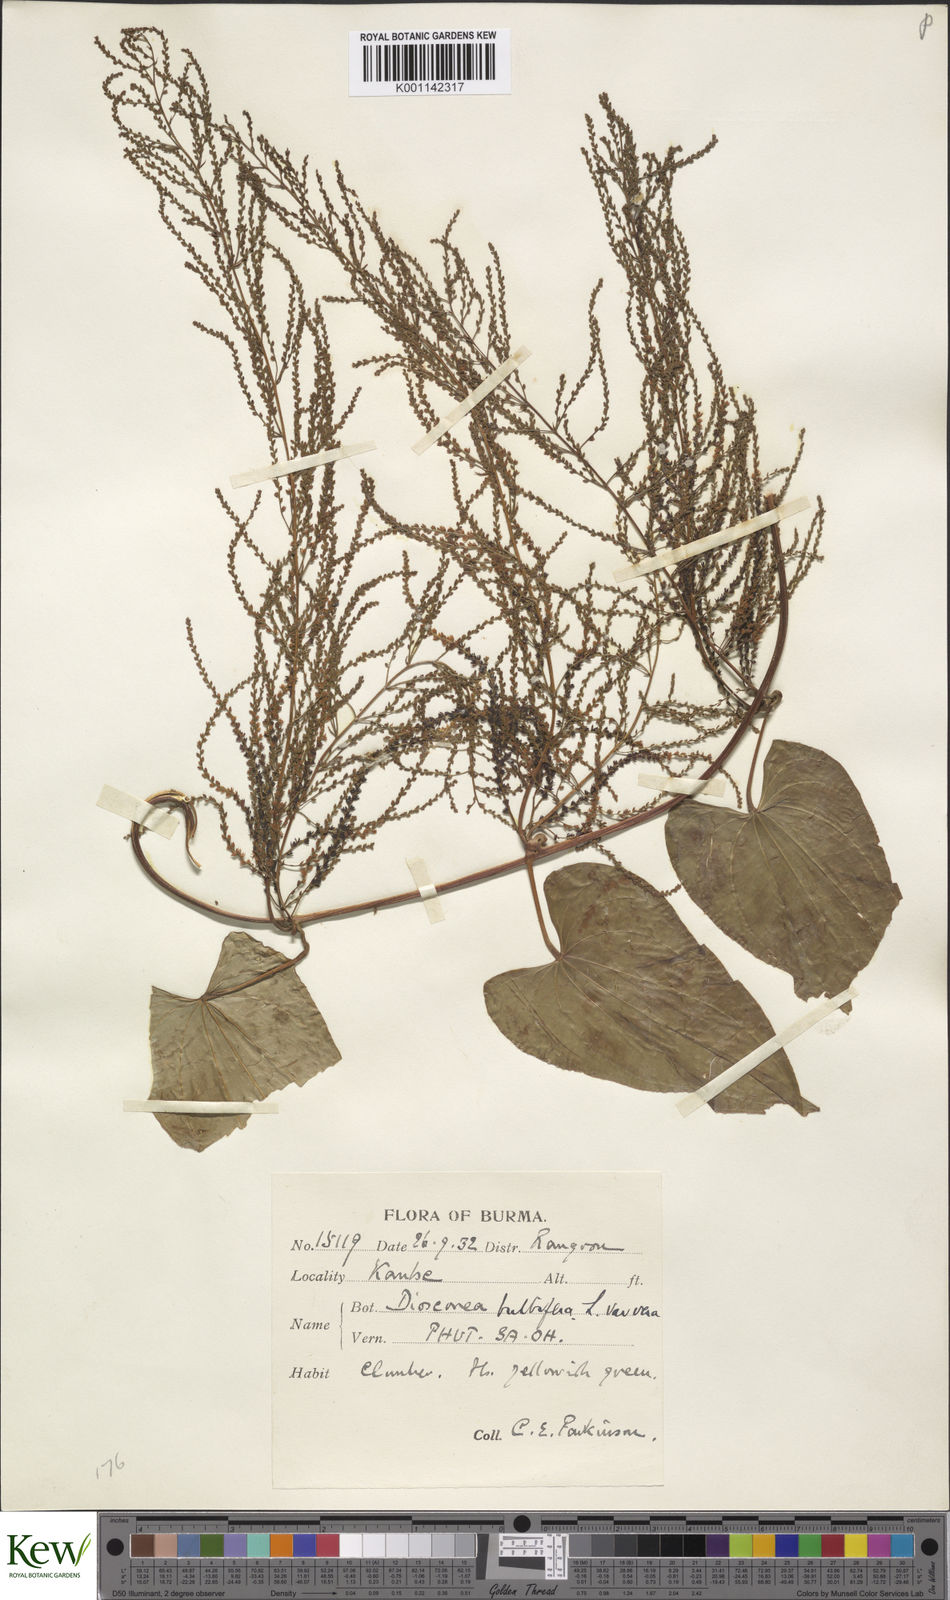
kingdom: Plantae
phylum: Tracheophyta
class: Liliopsida
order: Dioscoreales
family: Dioscoreaceae
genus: Dioscorea
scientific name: Dioscorea bulbifera
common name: Air yam
